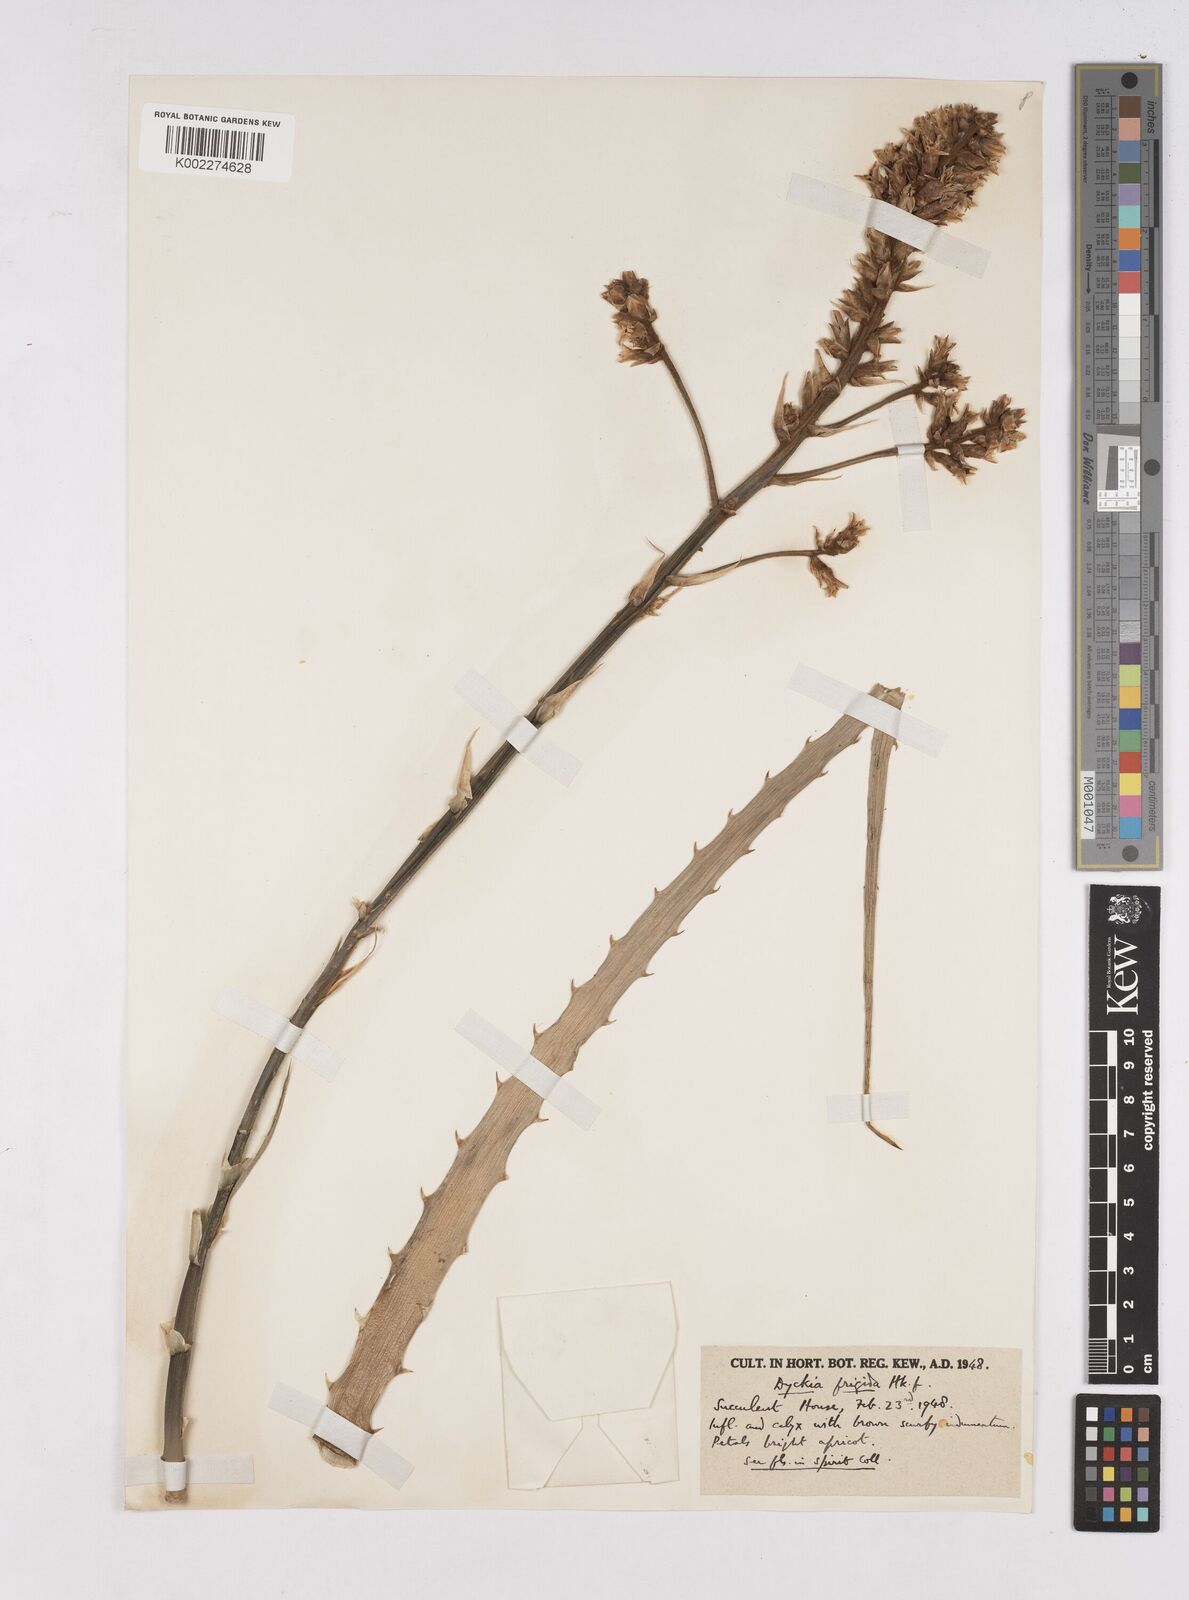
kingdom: Plantae
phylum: Tracheophyta
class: Liliopsida
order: Poales
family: Bromeliaceae
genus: Dyckia
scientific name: Dyckia frigida
